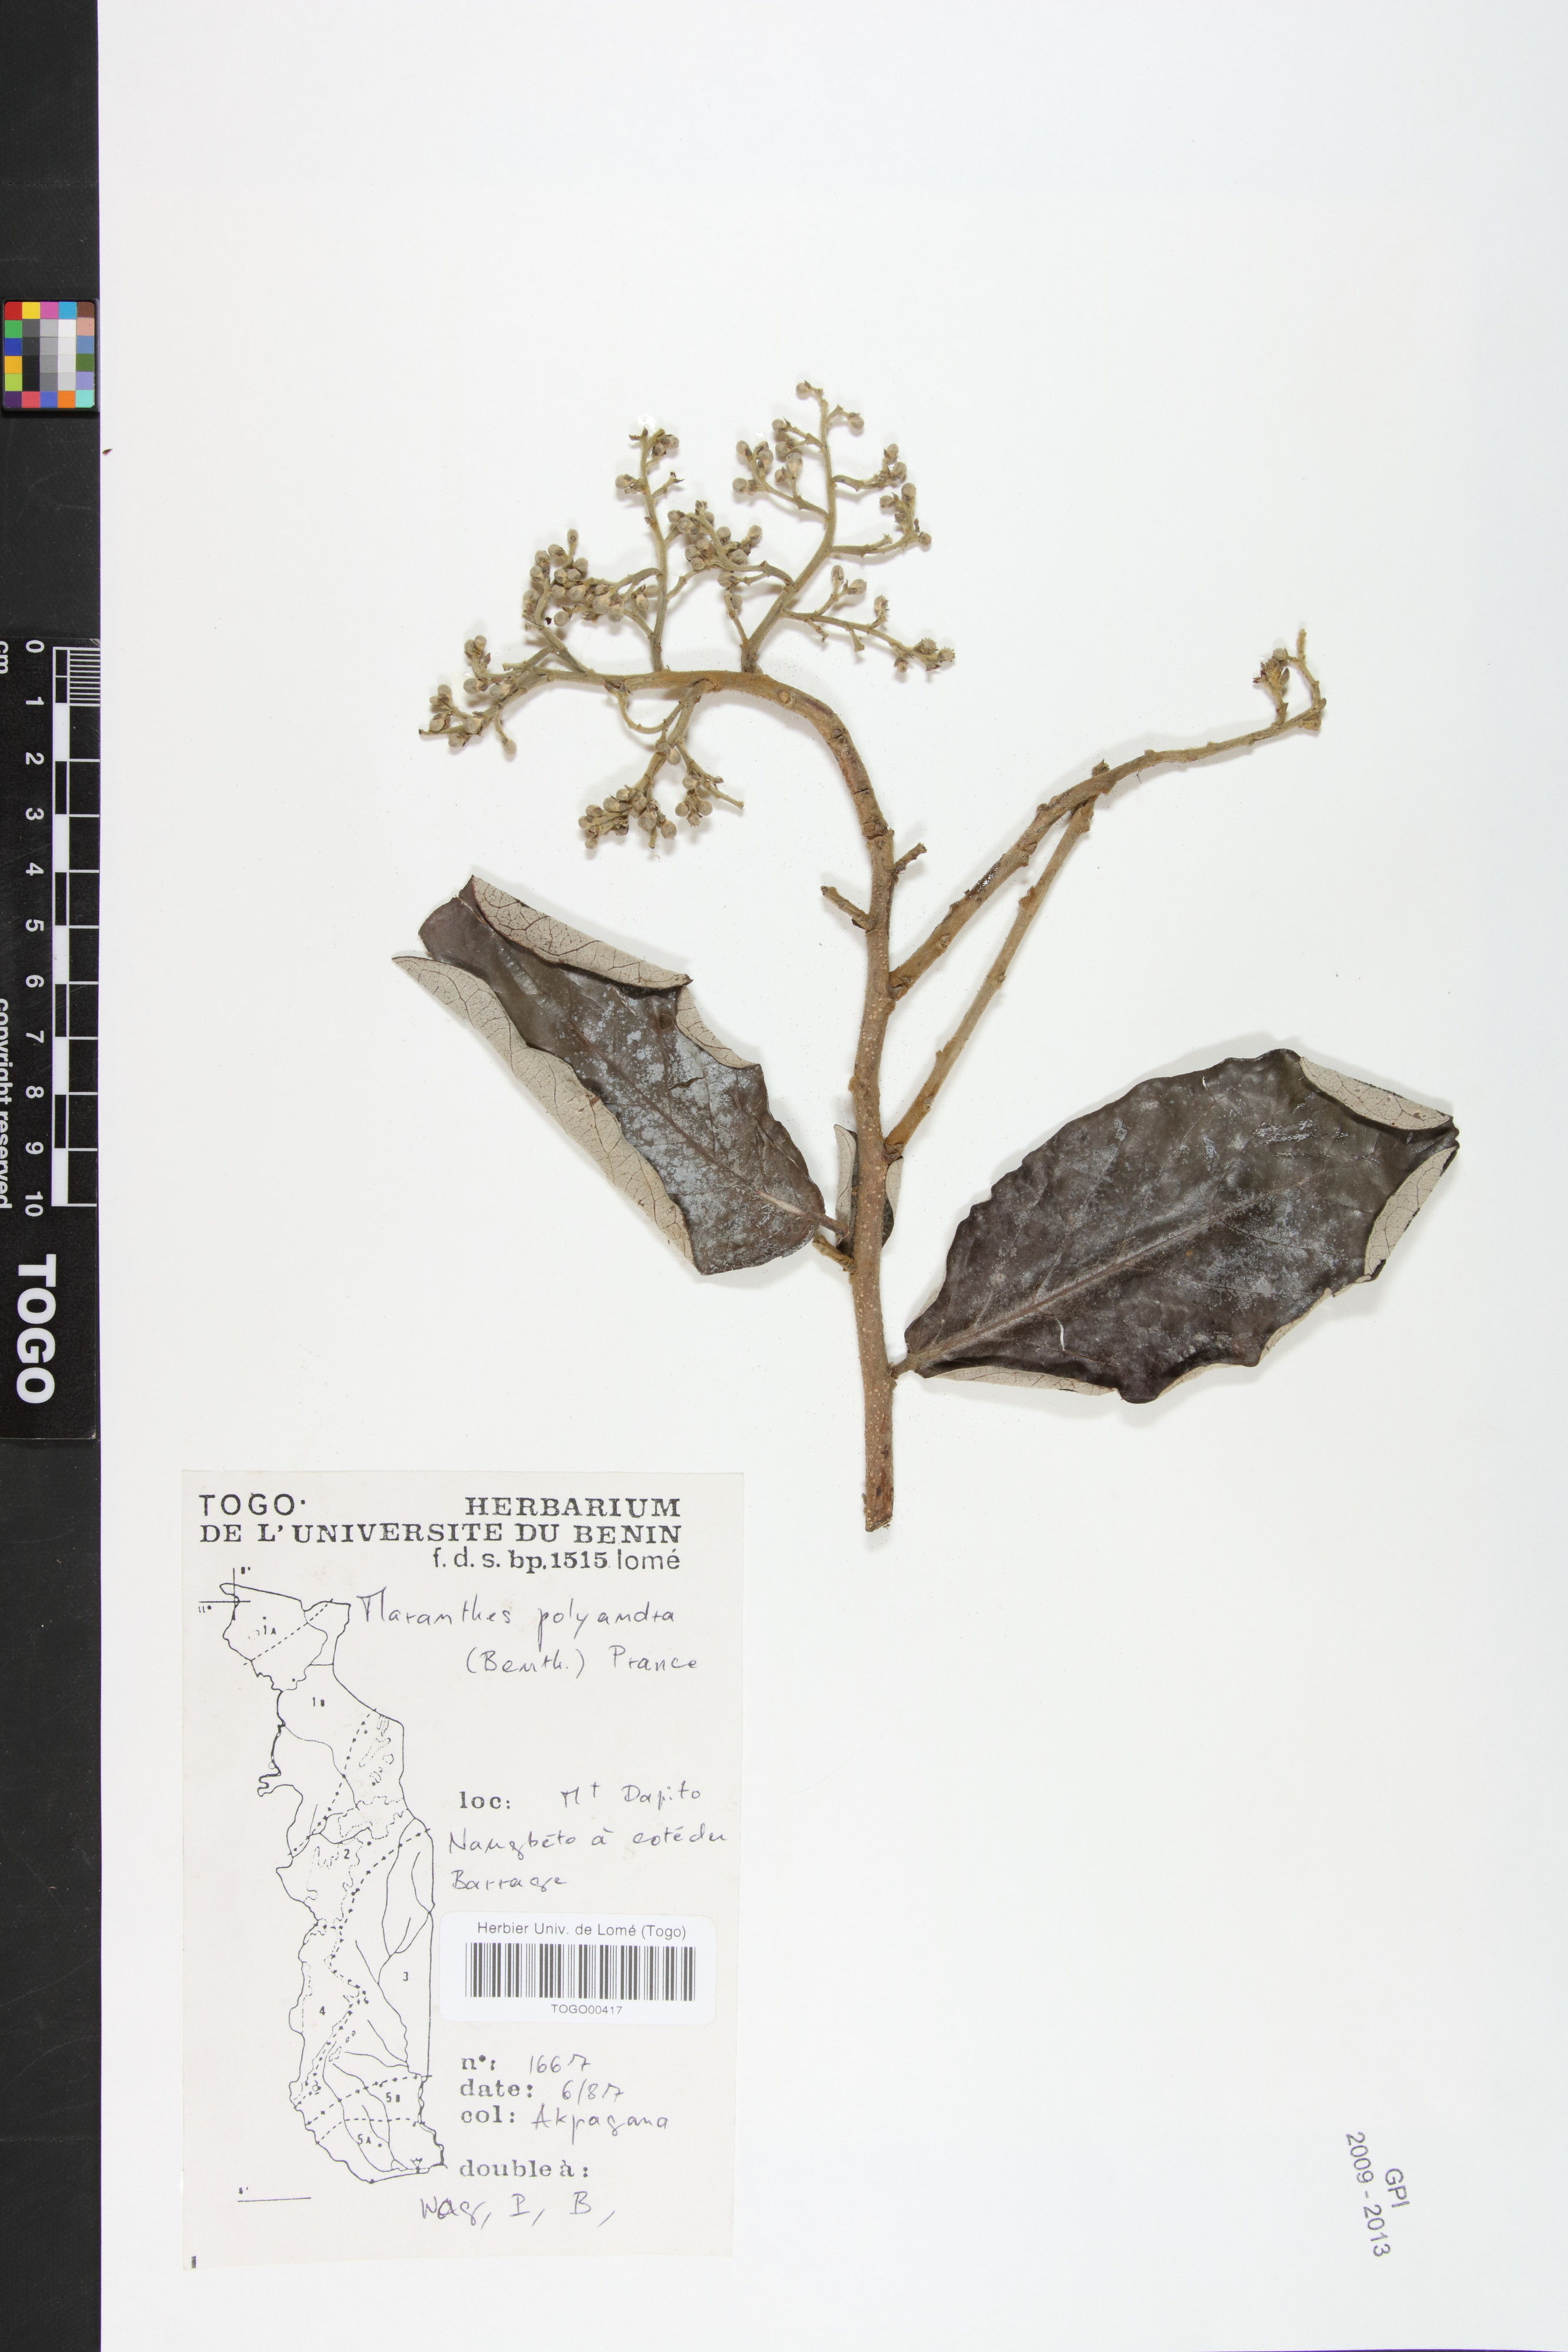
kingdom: Plantae
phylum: Tracheophyta
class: Magnoliopsida
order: Malpighiales
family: Chrysobalanaceae
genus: Maranthes
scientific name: Maranthes polyandra
